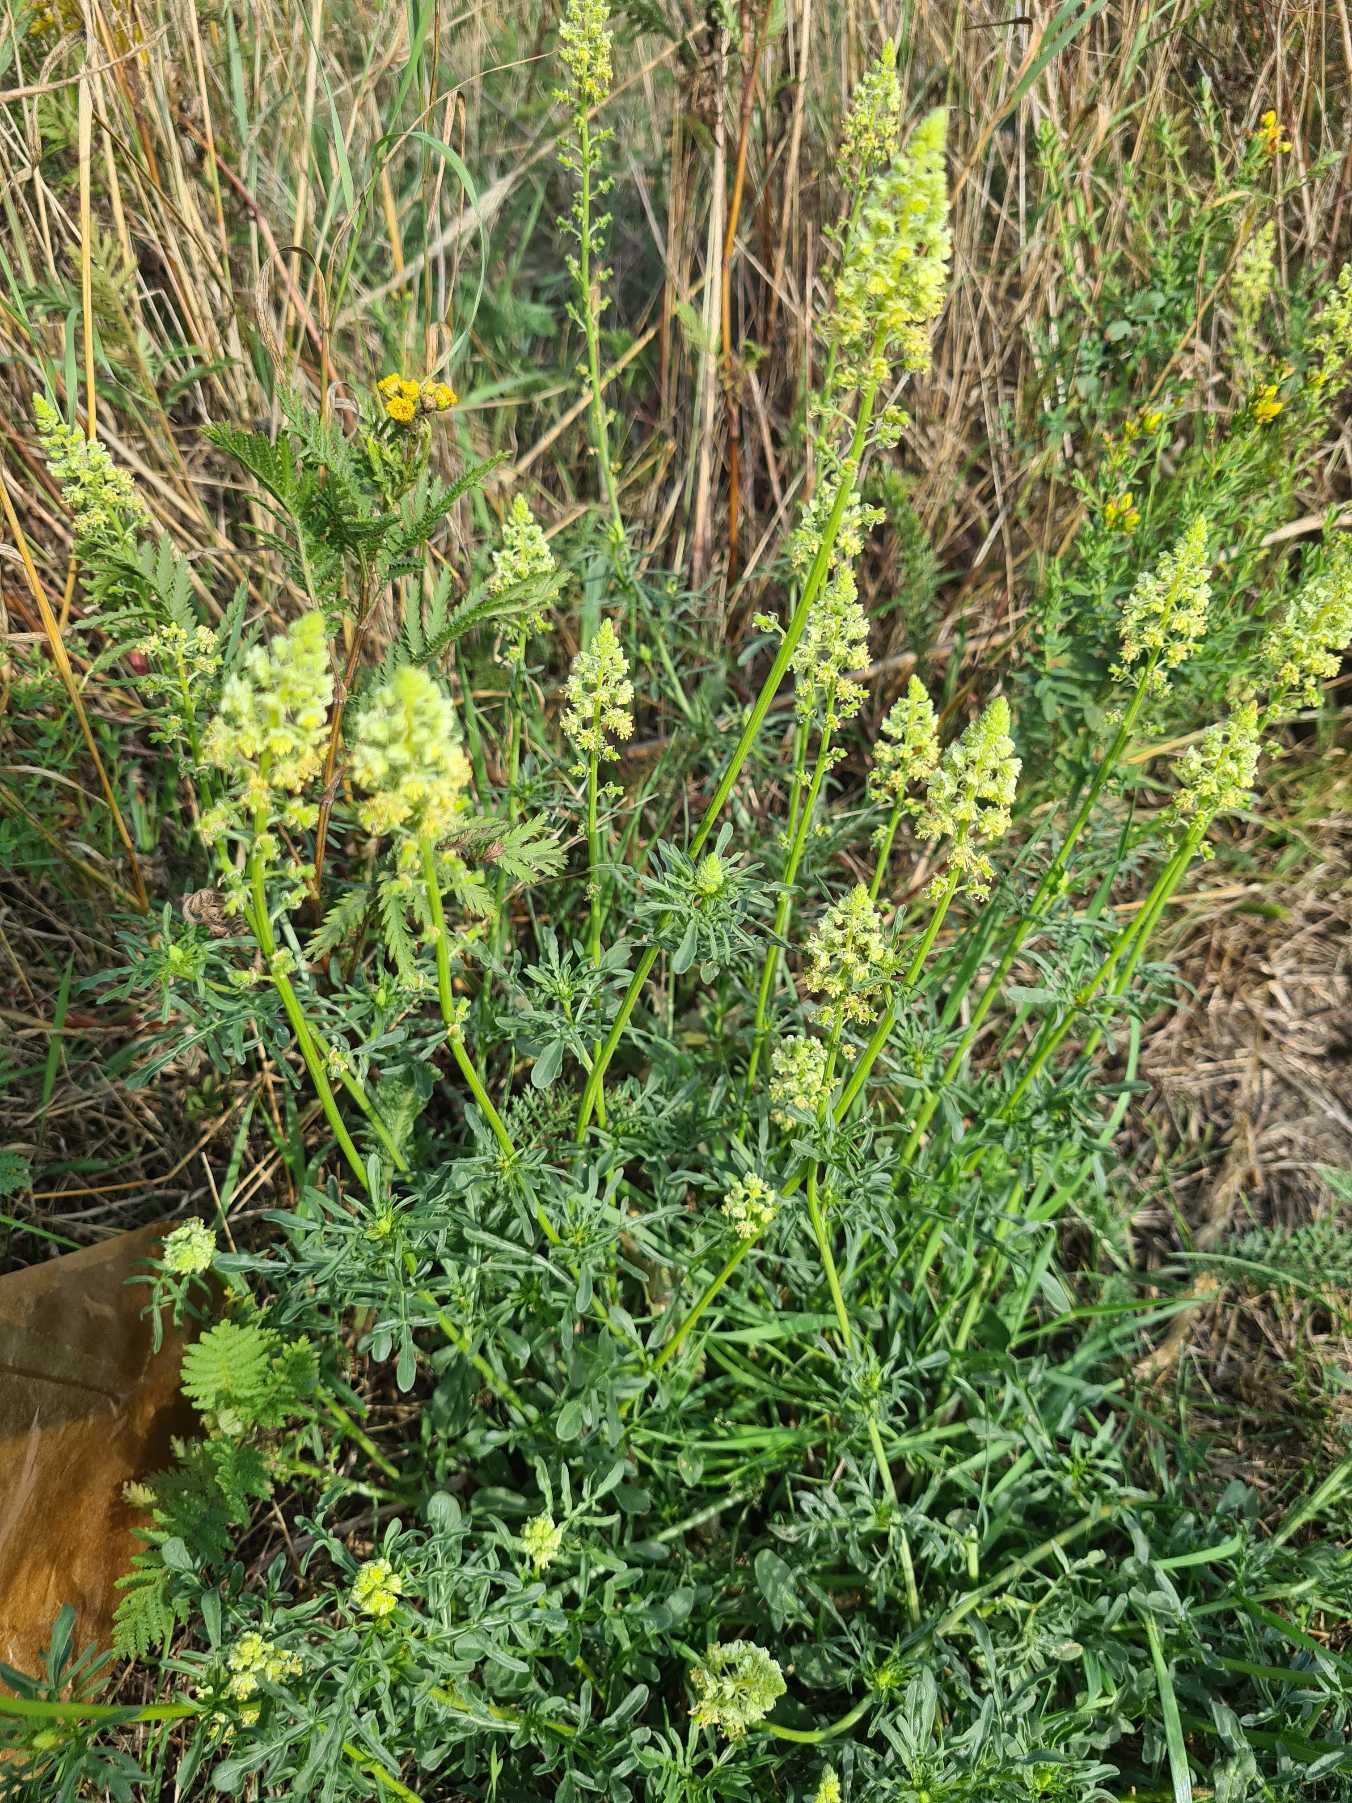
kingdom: Plantae
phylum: Tracheophyta
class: Magnoliopsida
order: Brassicales
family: Resedaceae
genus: Reseda
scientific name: Reseda lutea
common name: Gul reseda
